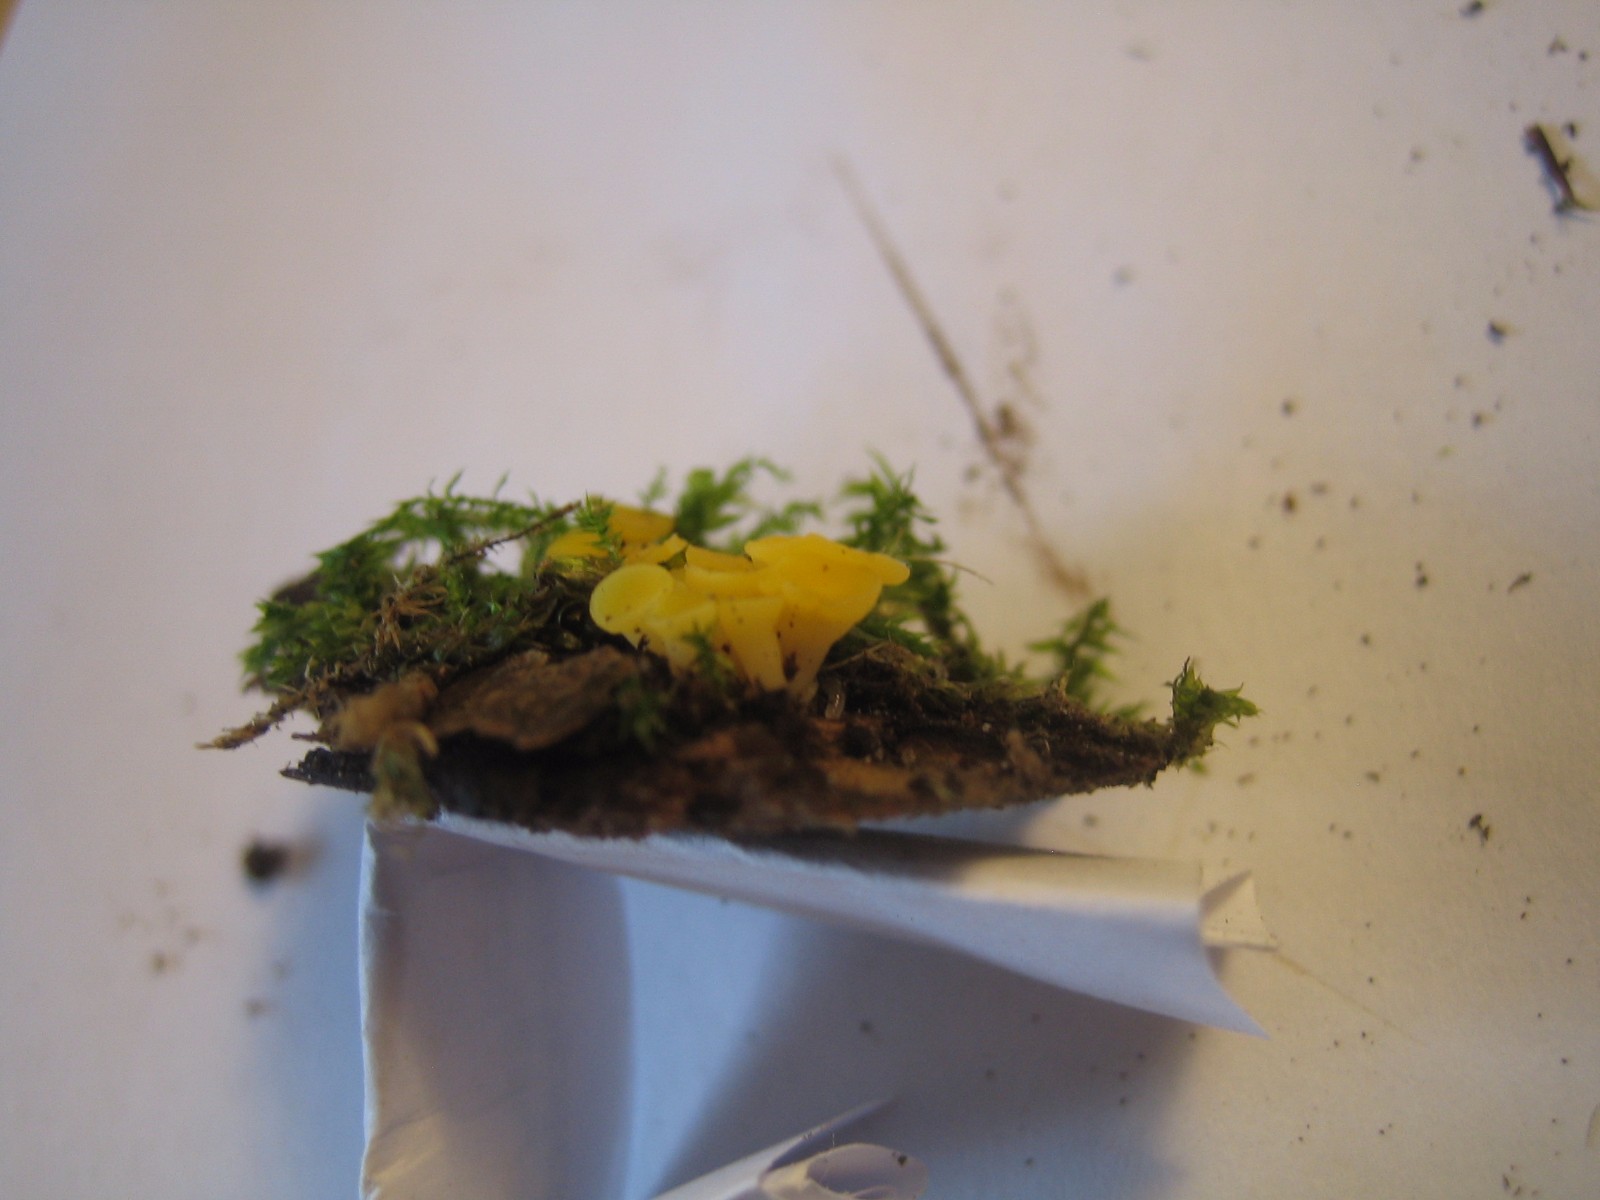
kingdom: Fungi
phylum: Ascomycota
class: Leotiomycetes
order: Helotiales
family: Pezizellaceae
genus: Calycina
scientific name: Calycina citrina
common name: almindelig gulskive
